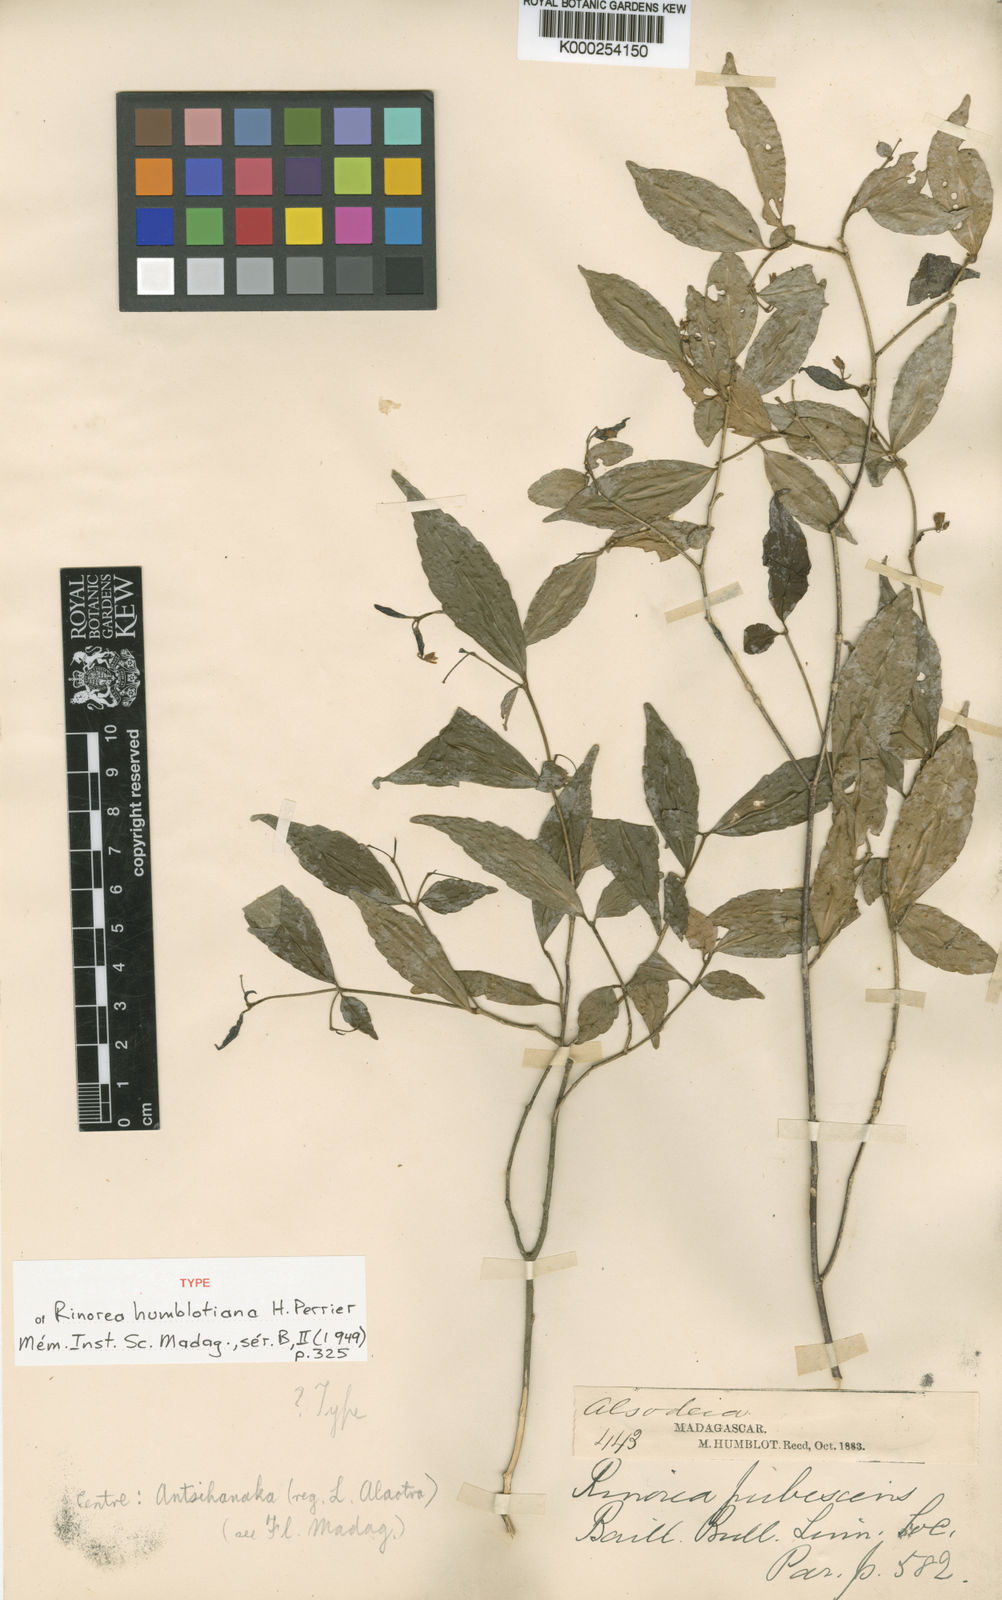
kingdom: Plantae
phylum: Tracheophyta
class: Magnoliopsida
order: Malpighiales
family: Violaceae
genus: Rinorea
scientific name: Rinorea angustifolia
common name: White violet-bush
